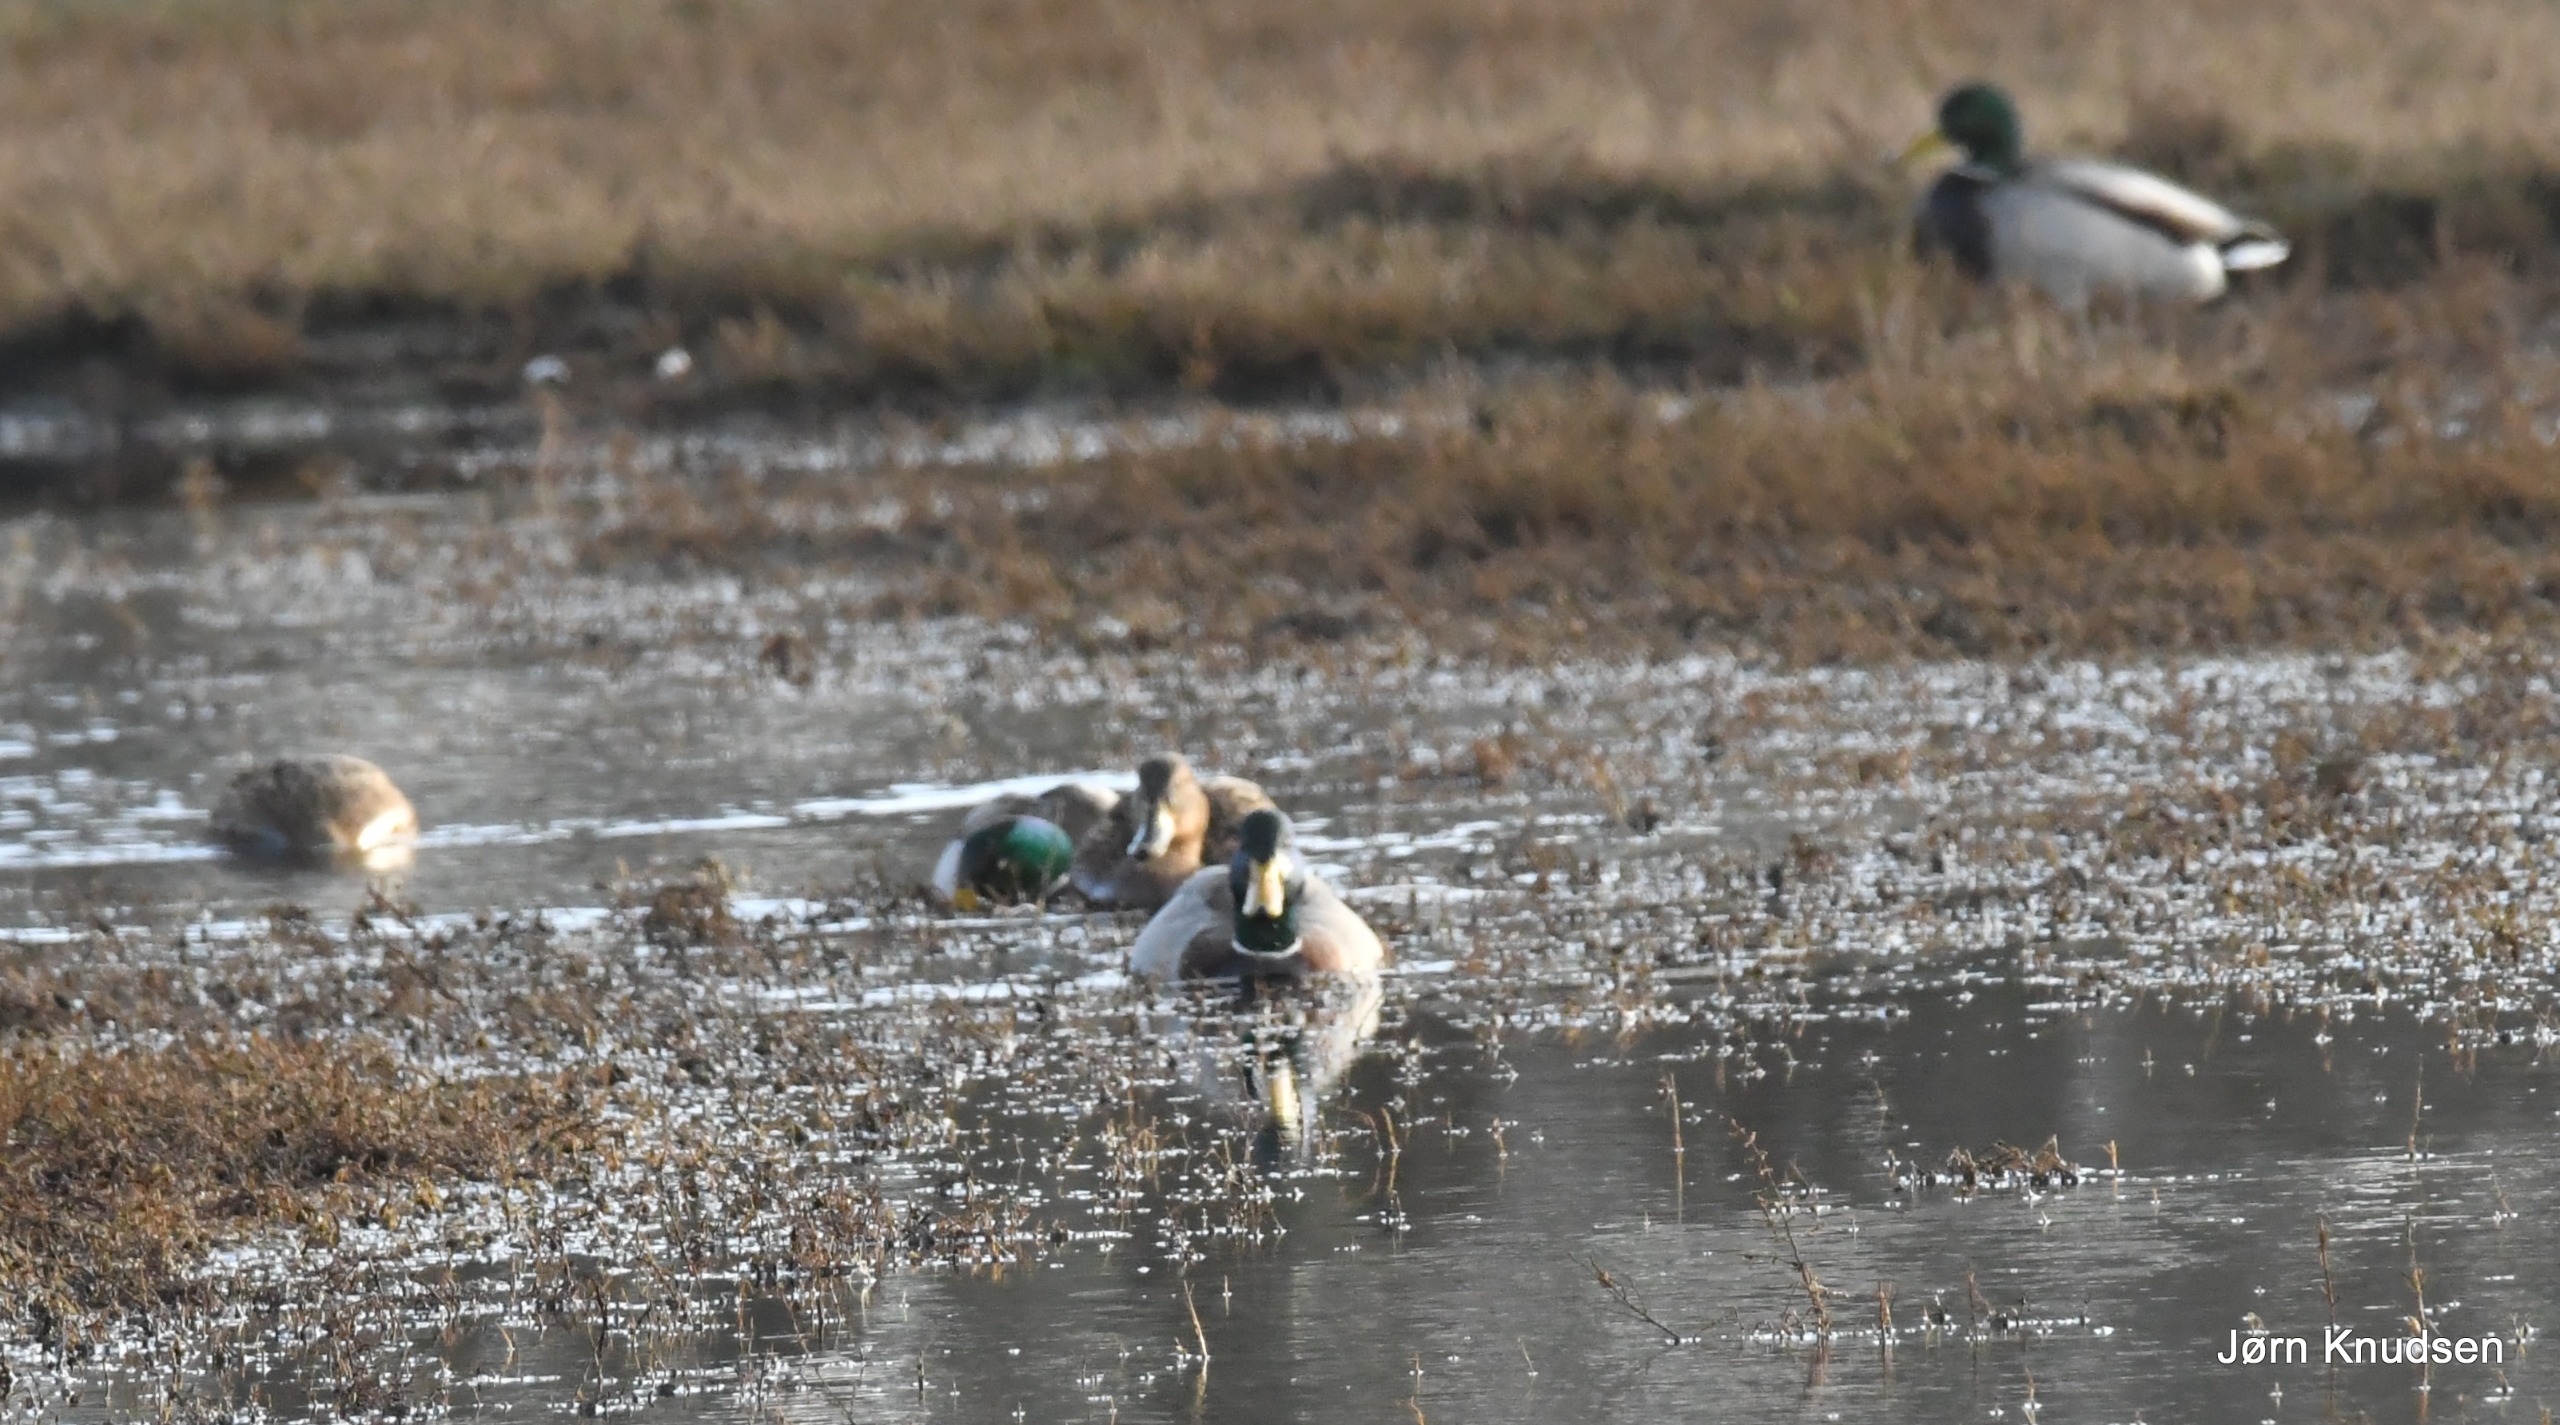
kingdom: Animalia
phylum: Chordata
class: Aves
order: Anseriformes
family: Anatidae
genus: Anas
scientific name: Anas platyrhynchos
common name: Gråand
